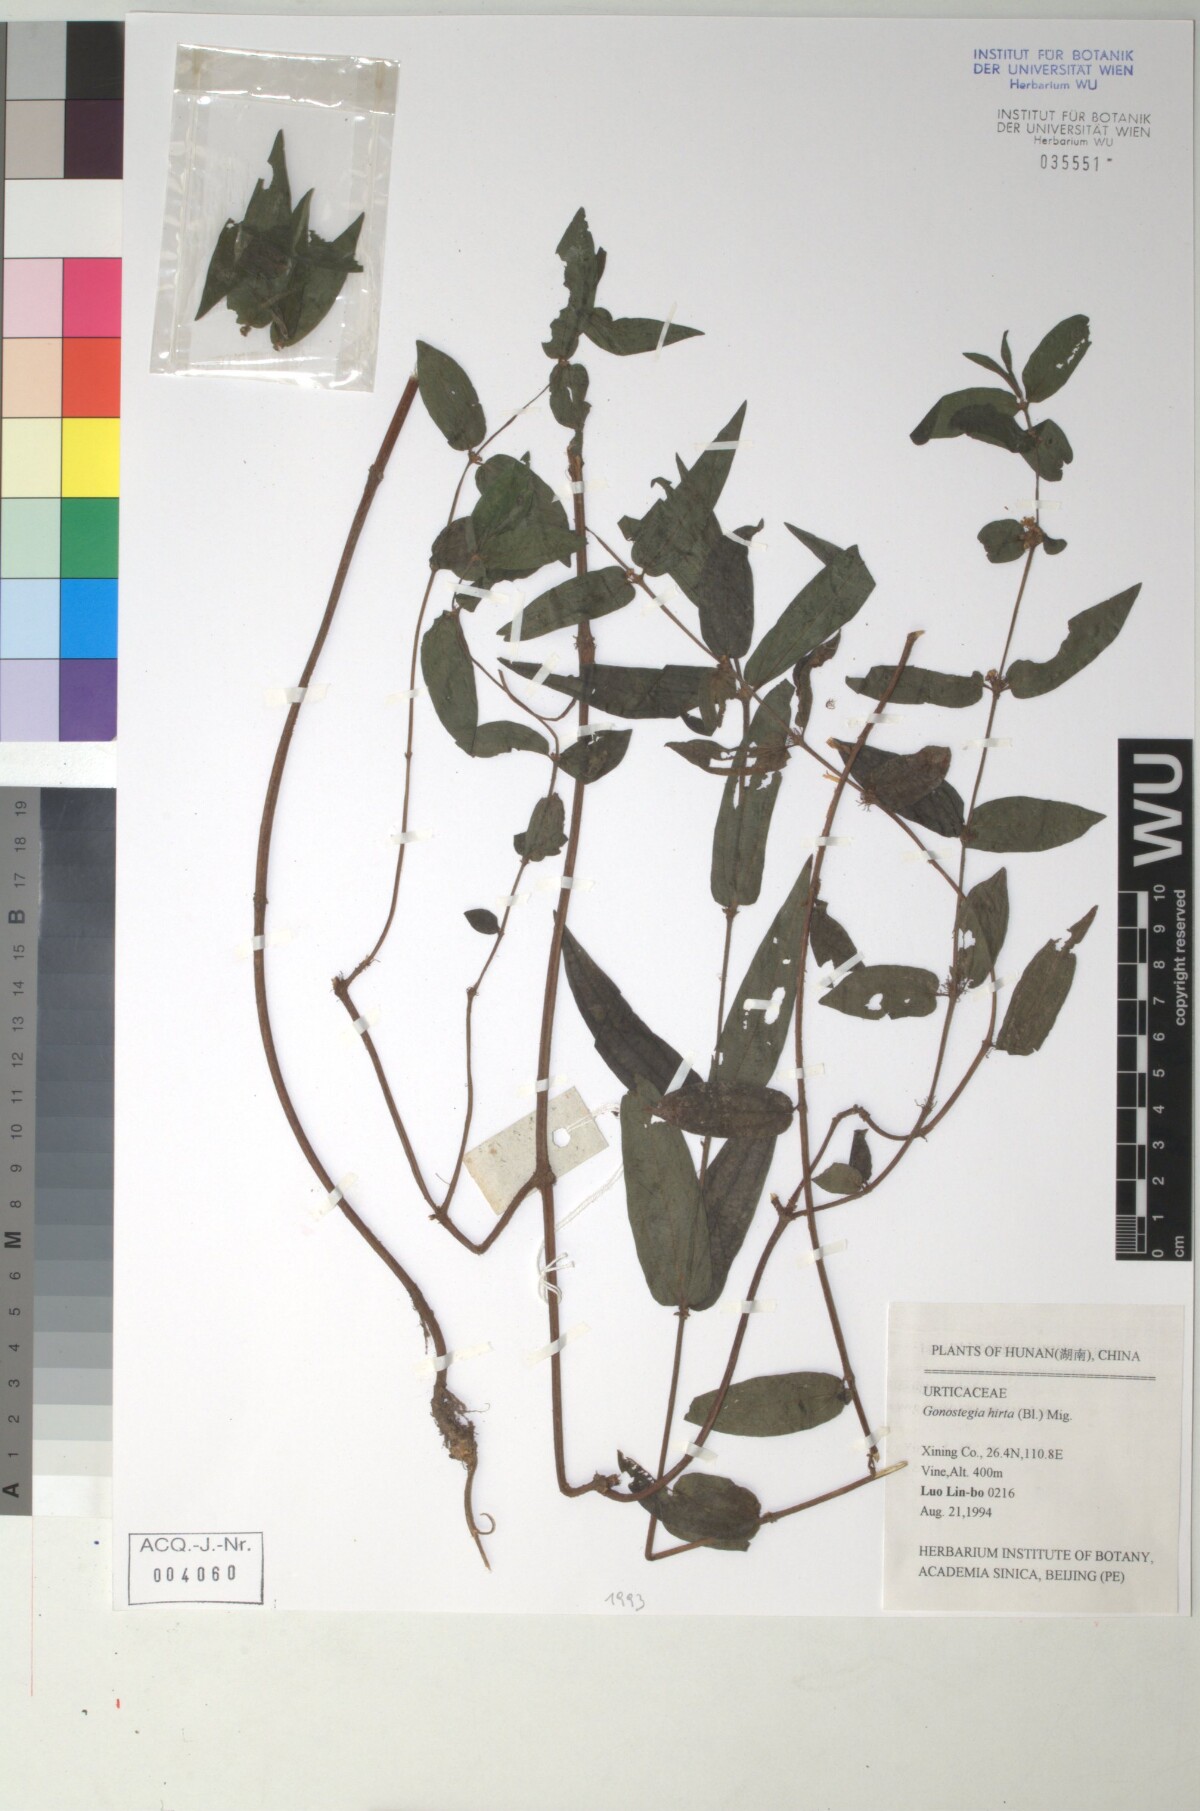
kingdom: Plantae
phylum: Tracheophyta
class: Magnoliopsida
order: Rosales
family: Urticaceae
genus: Gonostegia
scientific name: Gonostegia triandra
